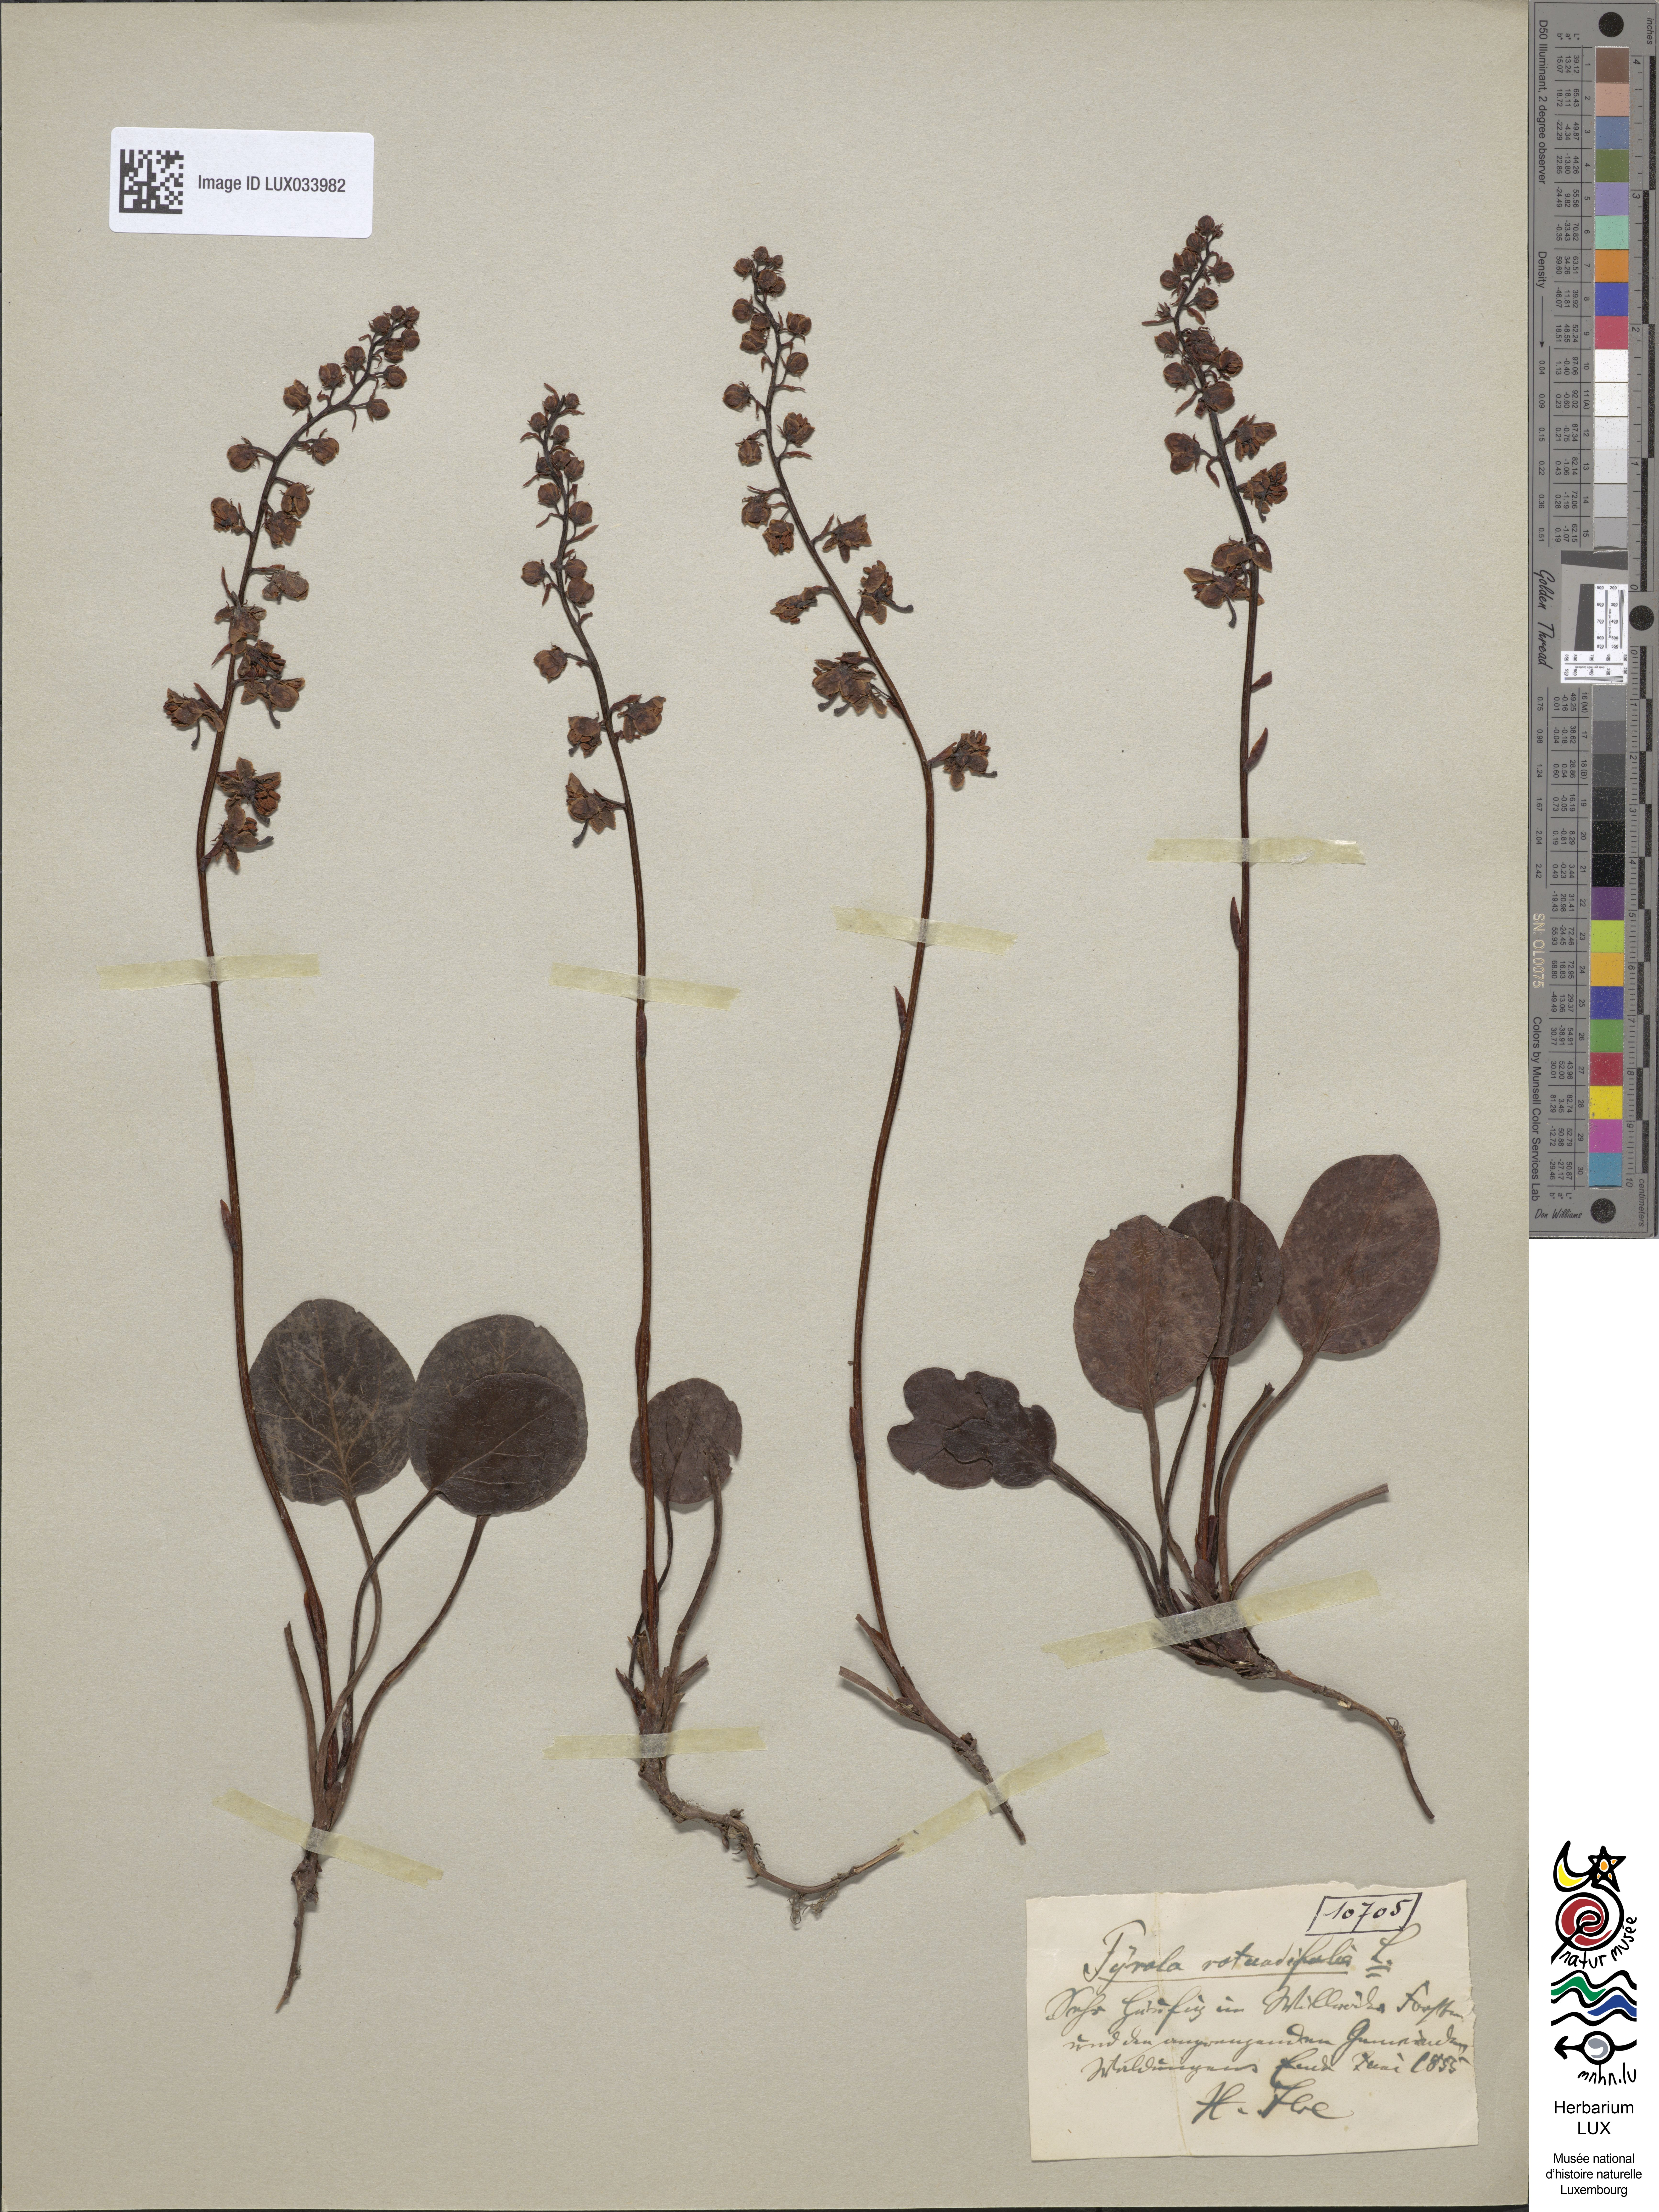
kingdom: Plantae
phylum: Tracheophyta
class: Magnoliopsida
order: Ericales
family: Ericaceae
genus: Pyrola
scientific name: Pyrola rotundifolia
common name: Round-leaved wintergreen
